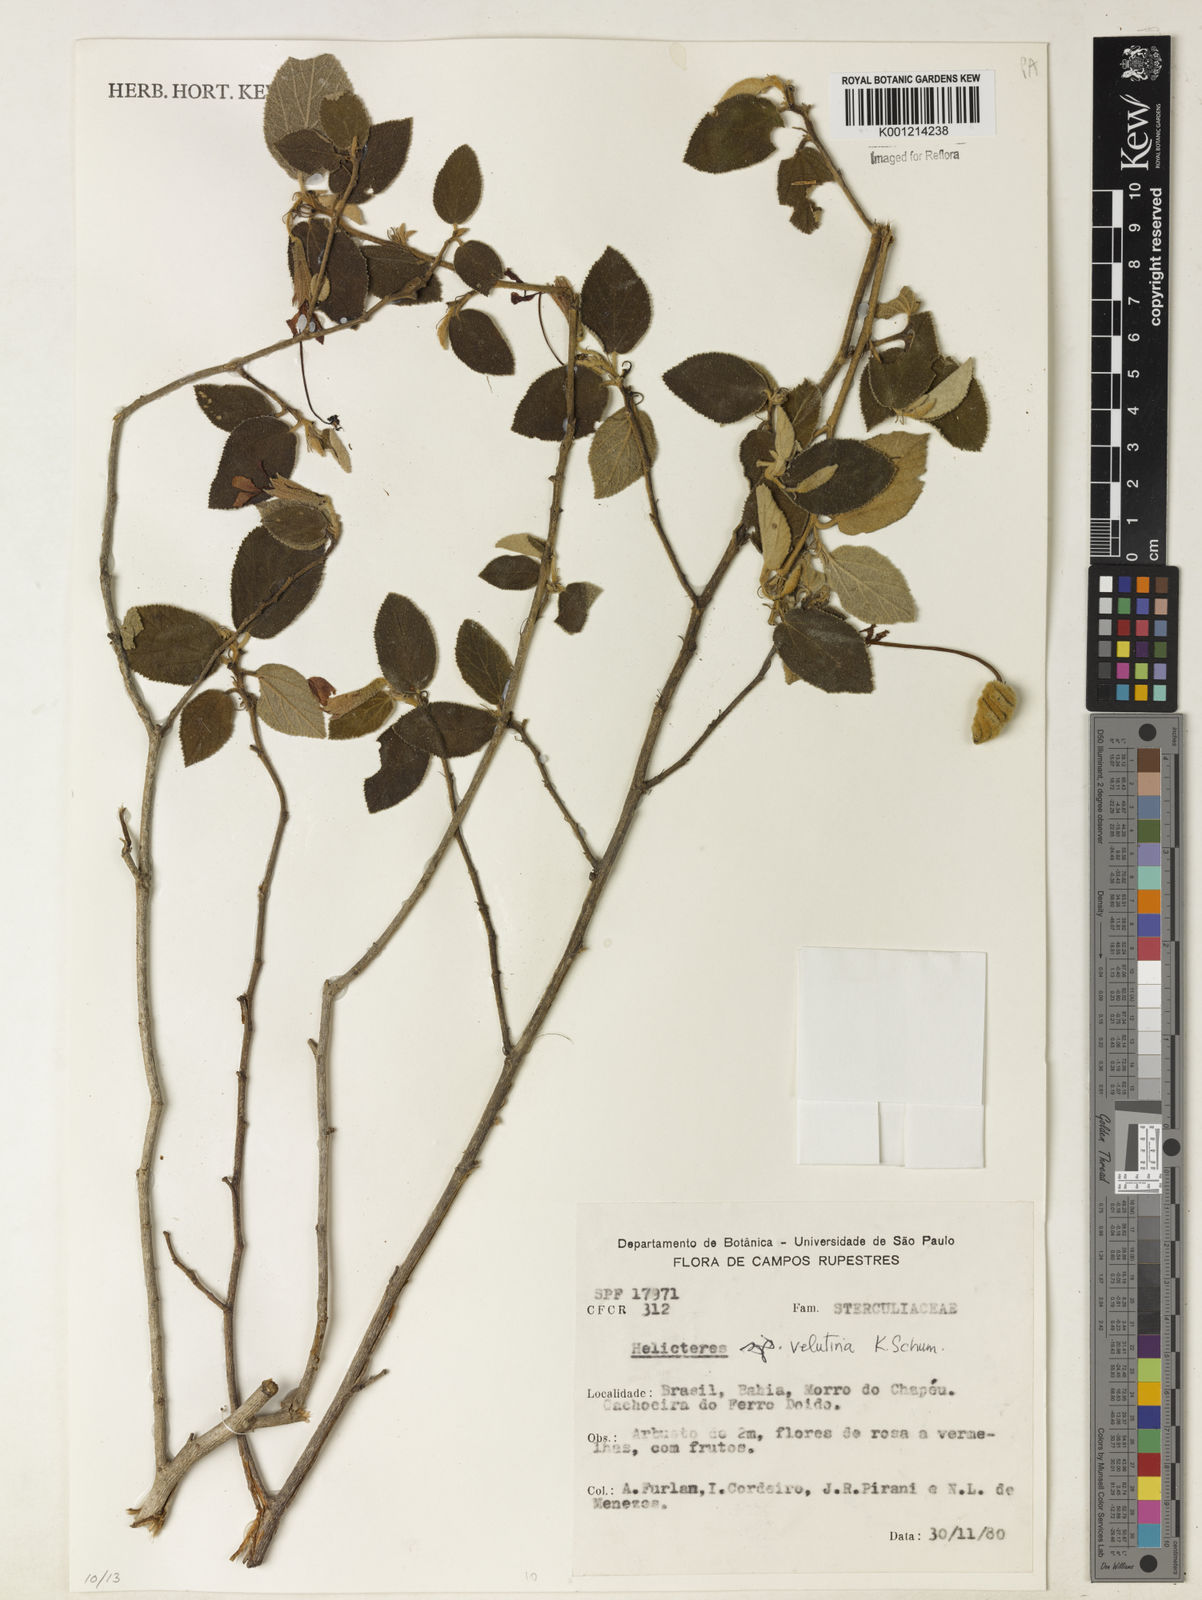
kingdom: Plantae
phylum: Tracheophyta
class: Magnoliopsida
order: Malvales
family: Malvaceae
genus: Helicteres
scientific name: Helicteres velutina
